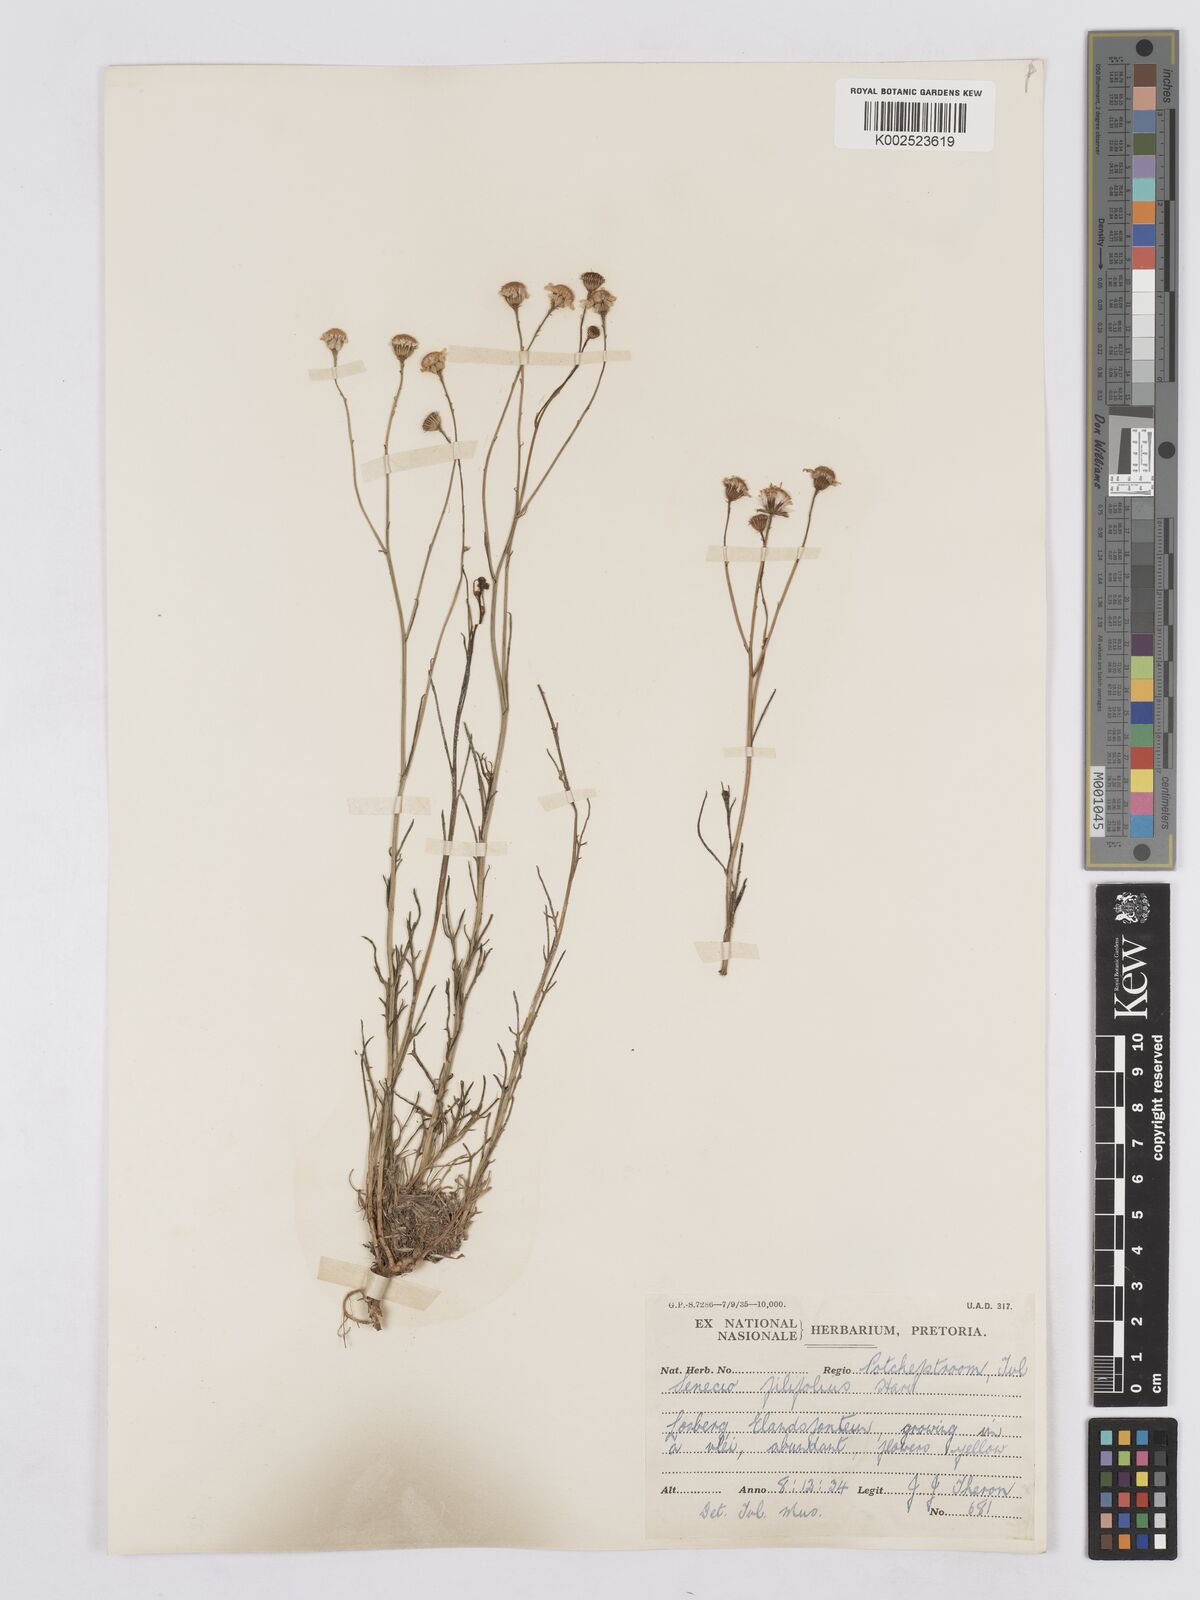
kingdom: Plantae
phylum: Tracheophyta
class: Magnoliopsida
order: Asterales
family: Asteraceae
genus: Senecio
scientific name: Senecio
